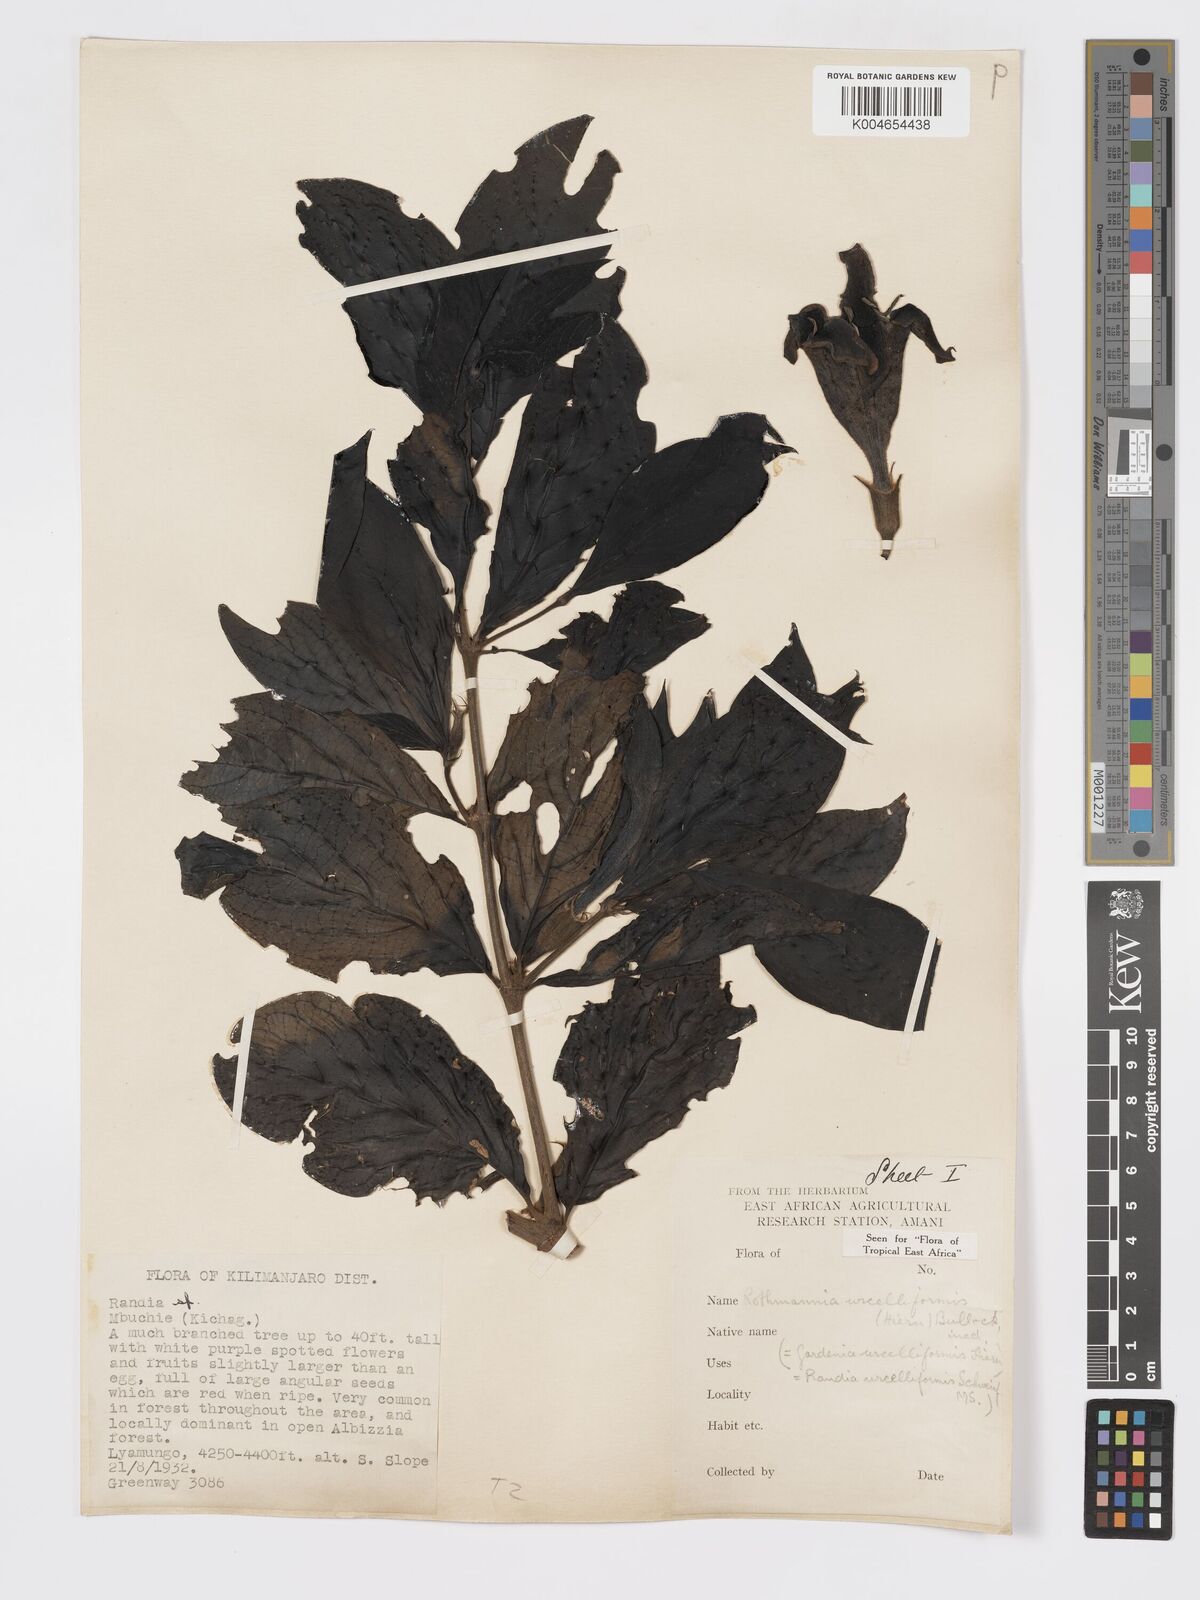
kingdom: Plantae
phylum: Tracheophyta
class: Magnoliopsida
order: Gentianales
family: Rubiaceae
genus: Rothmannia
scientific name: Rothmannia urcelliformis
